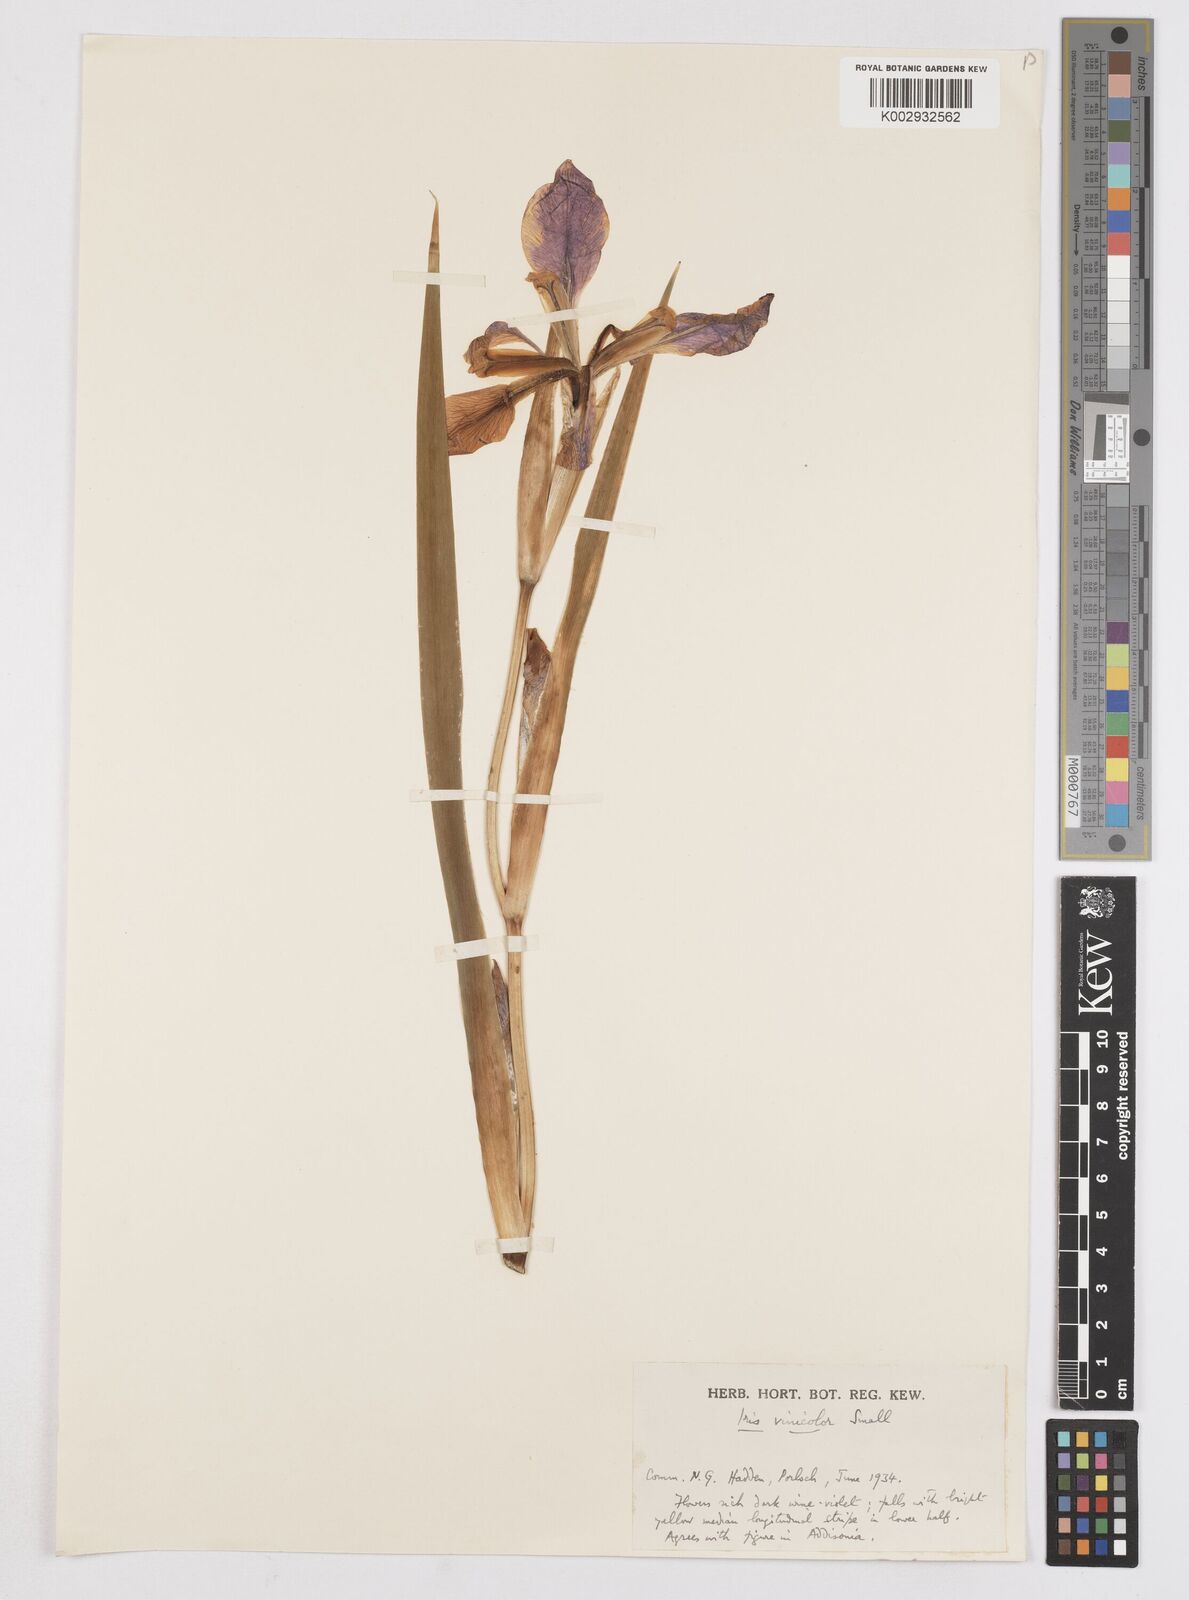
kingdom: Plantae
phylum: Tracheophyta
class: Liliopsida
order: Asparagales
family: Iridaceae
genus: Iris
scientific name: Iris vinicolor
